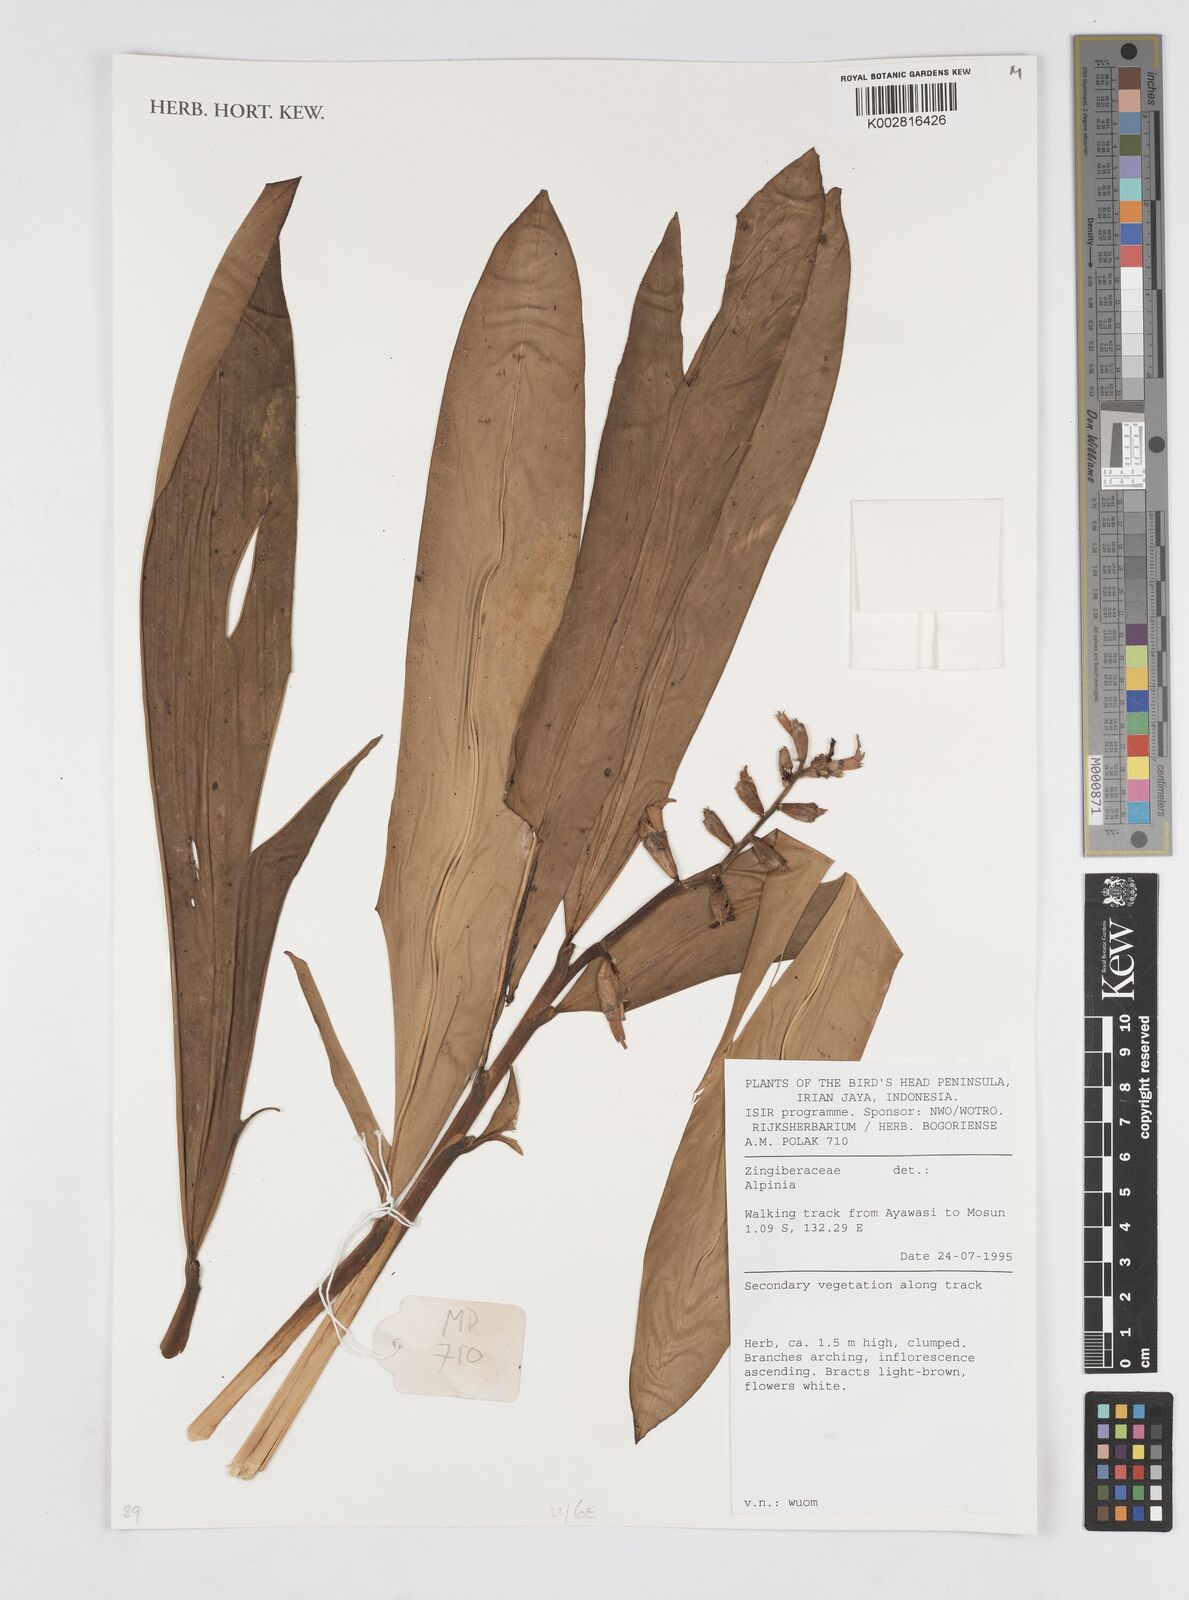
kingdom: Plantae
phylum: Tracheophyta
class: Liliopsida
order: Zingiberales
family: Zingiberaceae
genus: Alpinia
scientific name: Alpinia
